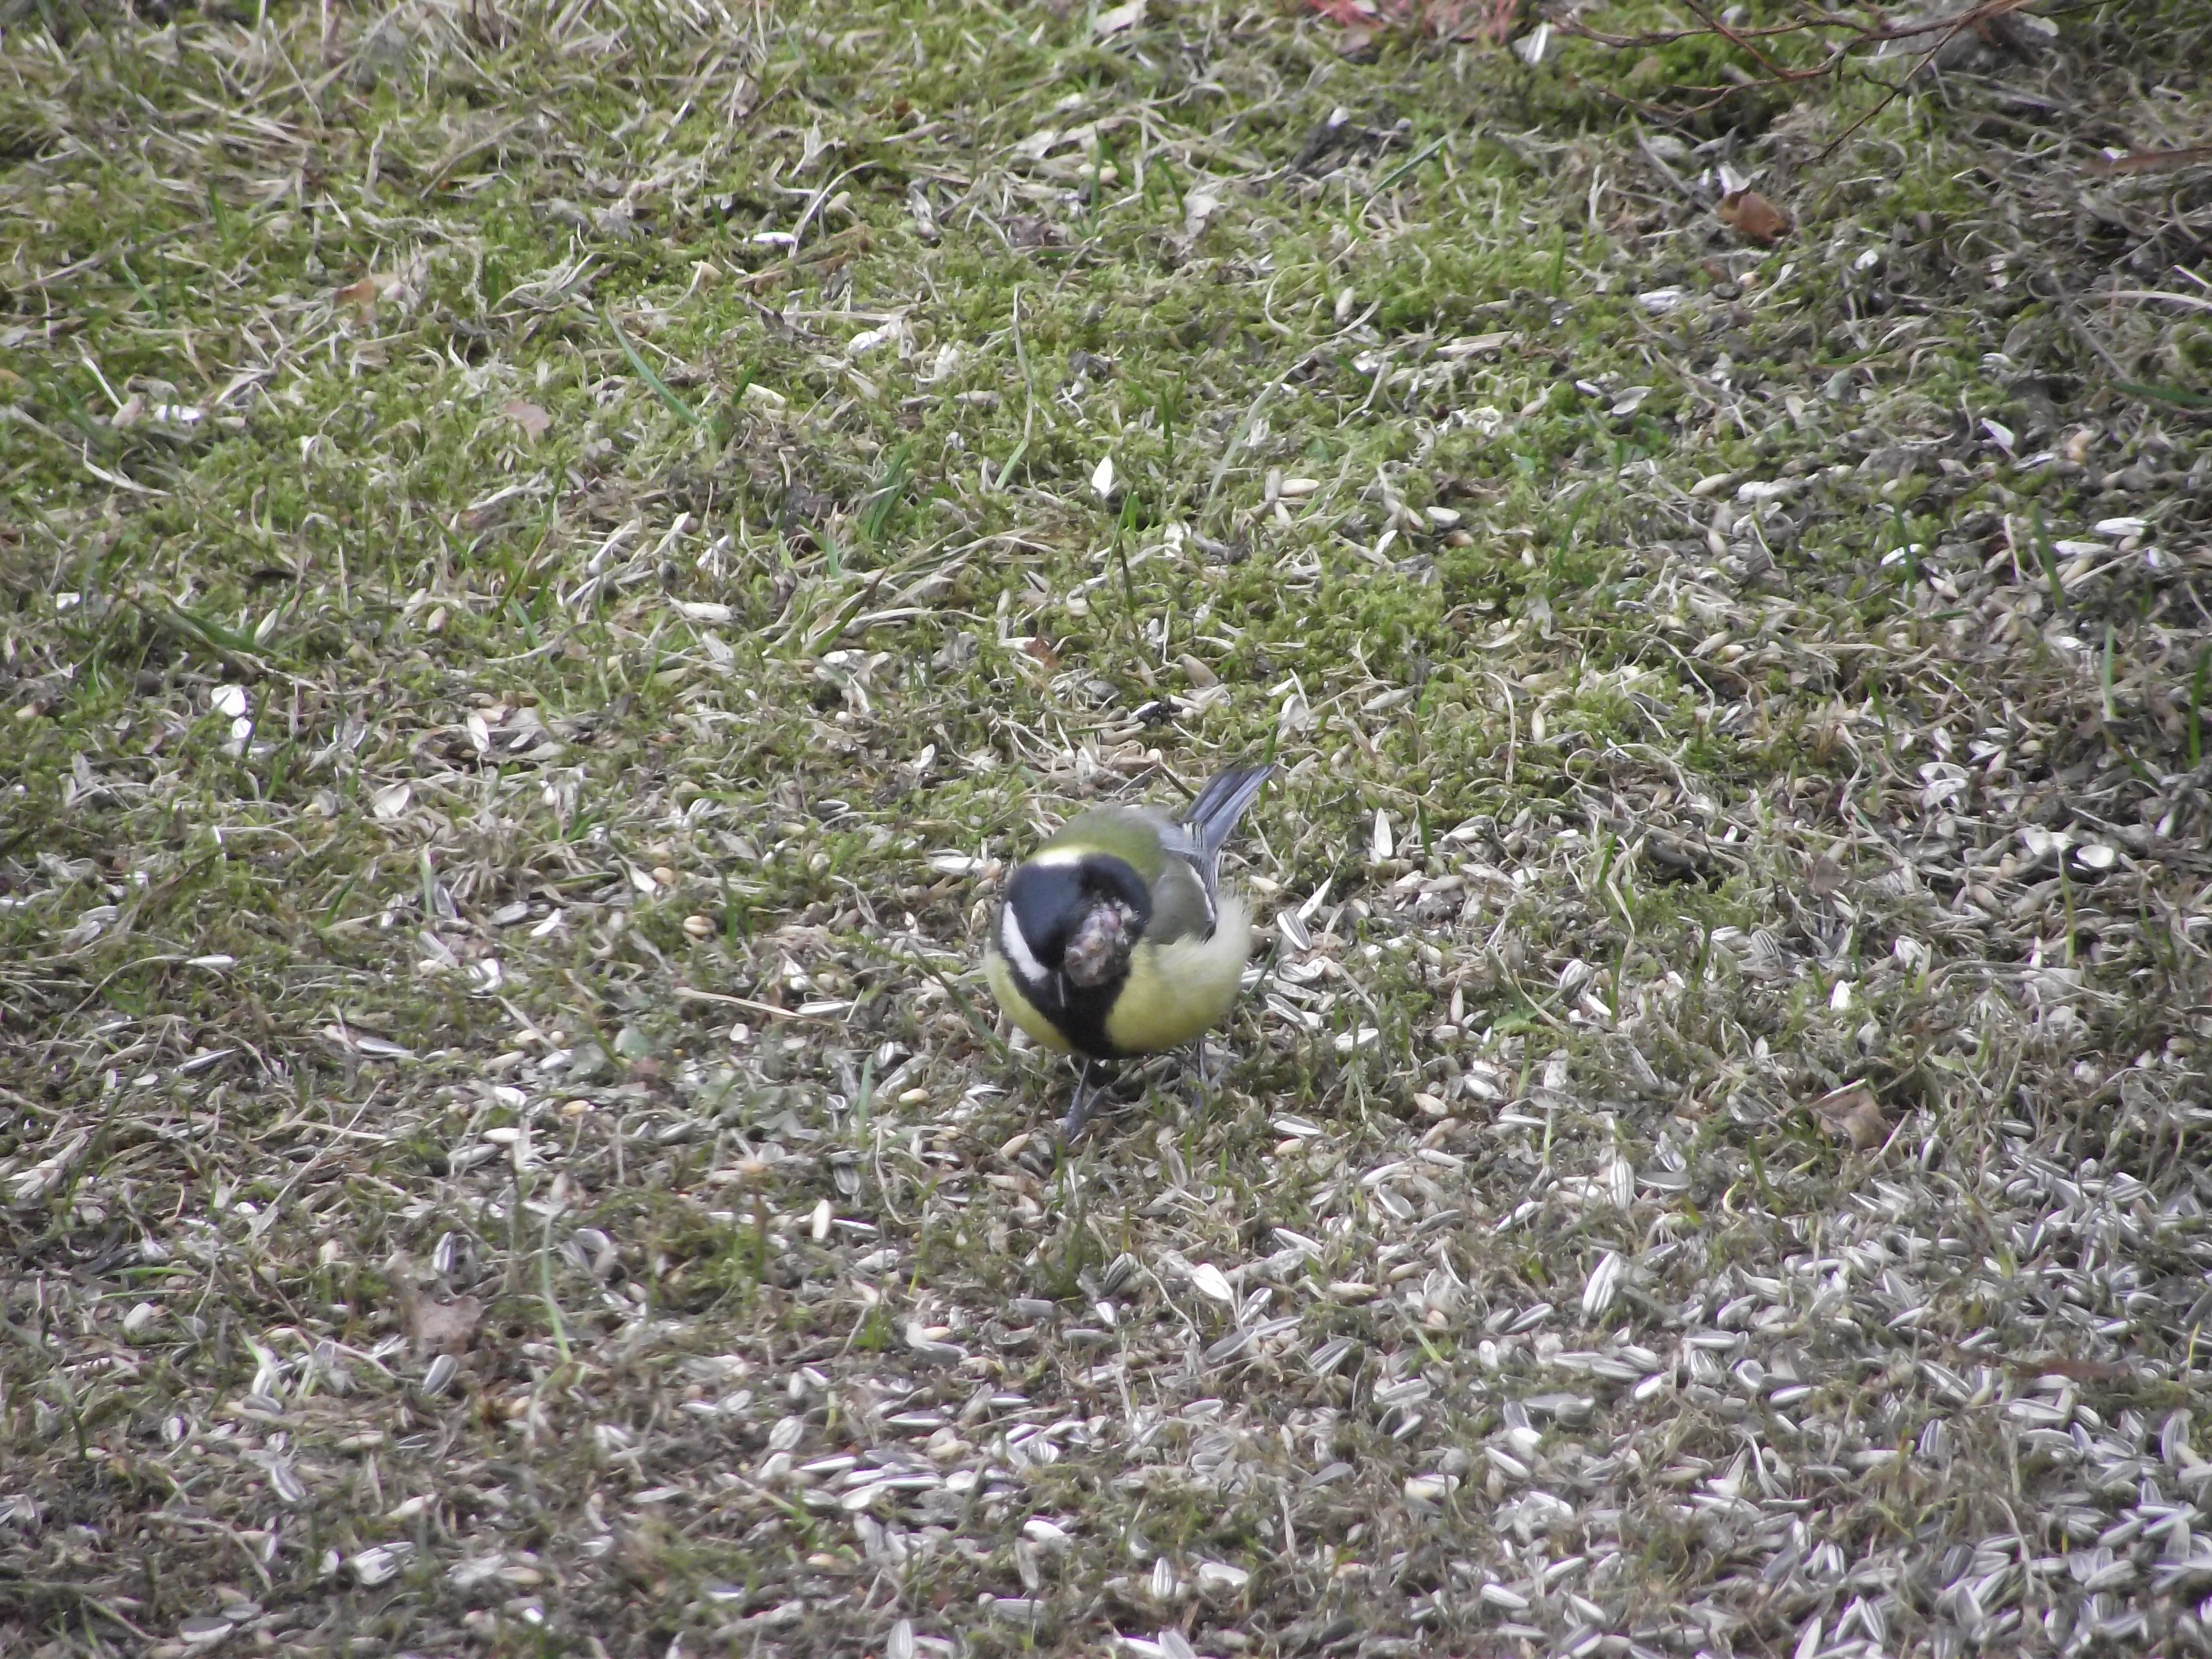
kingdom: Animalia
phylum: Chordata
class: Aves
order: Passeriformes
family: Paridae
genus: Parus
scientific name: Parus major
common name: Great tit
